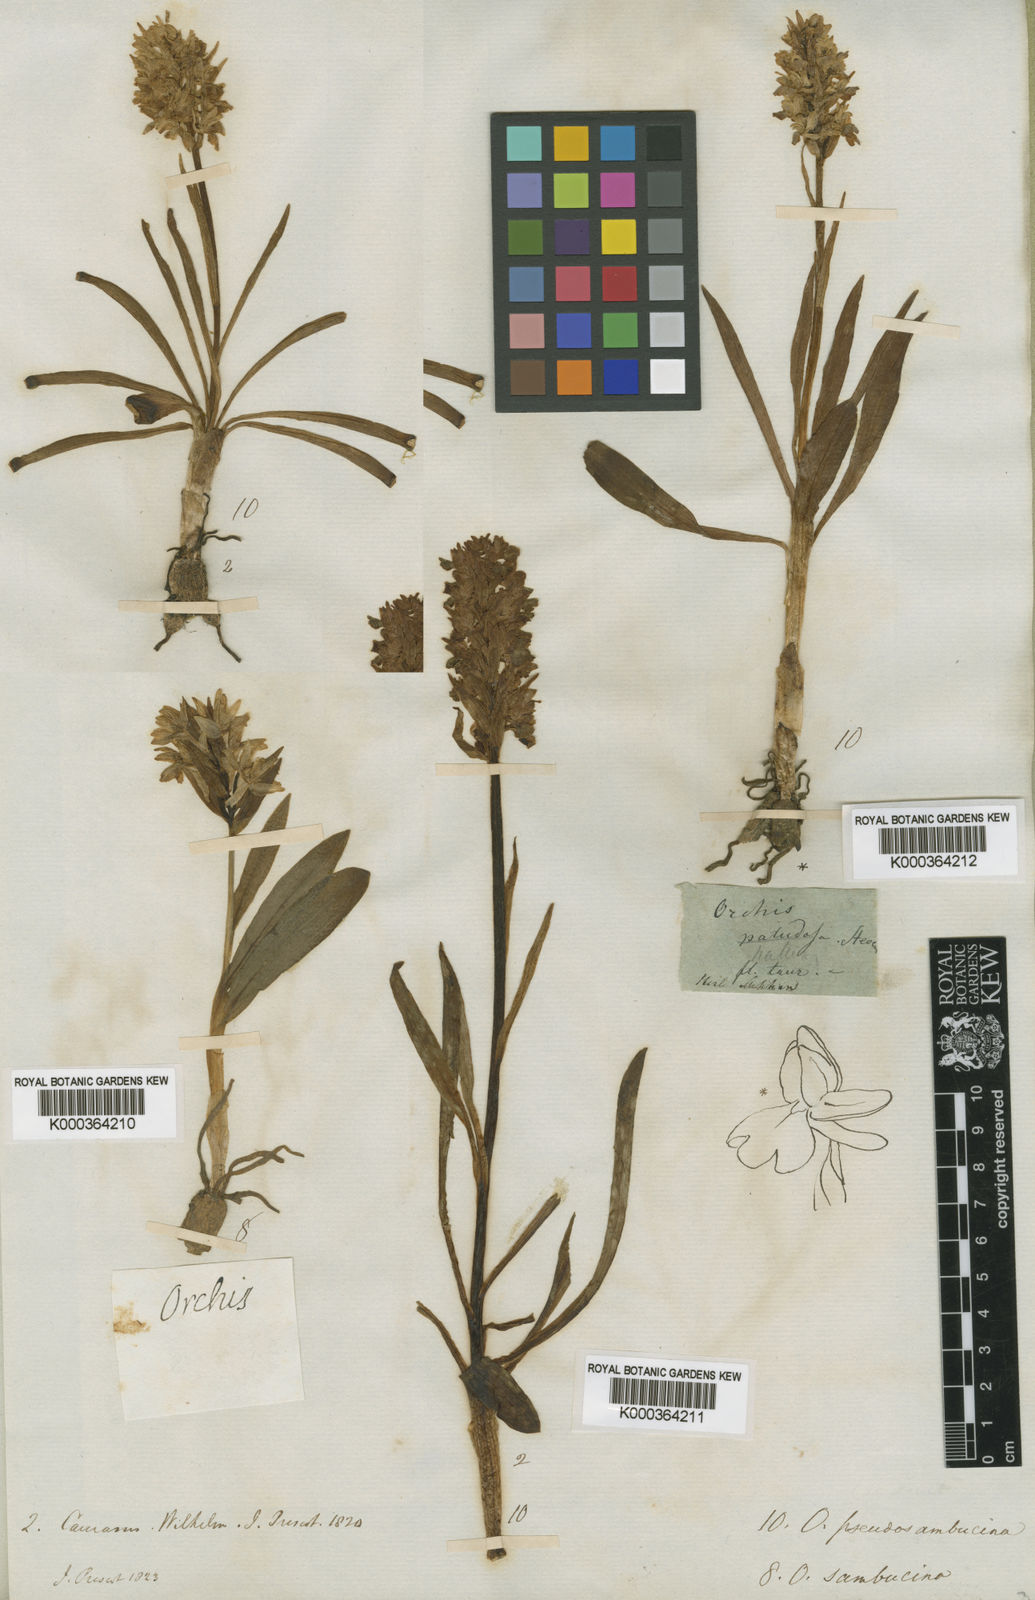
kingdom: Plantae
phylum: Tracheophyta
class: Liliopsida
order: Asparagales
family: Orchidaceae
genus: Dactylorhiza
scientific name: Dactylorhiza
